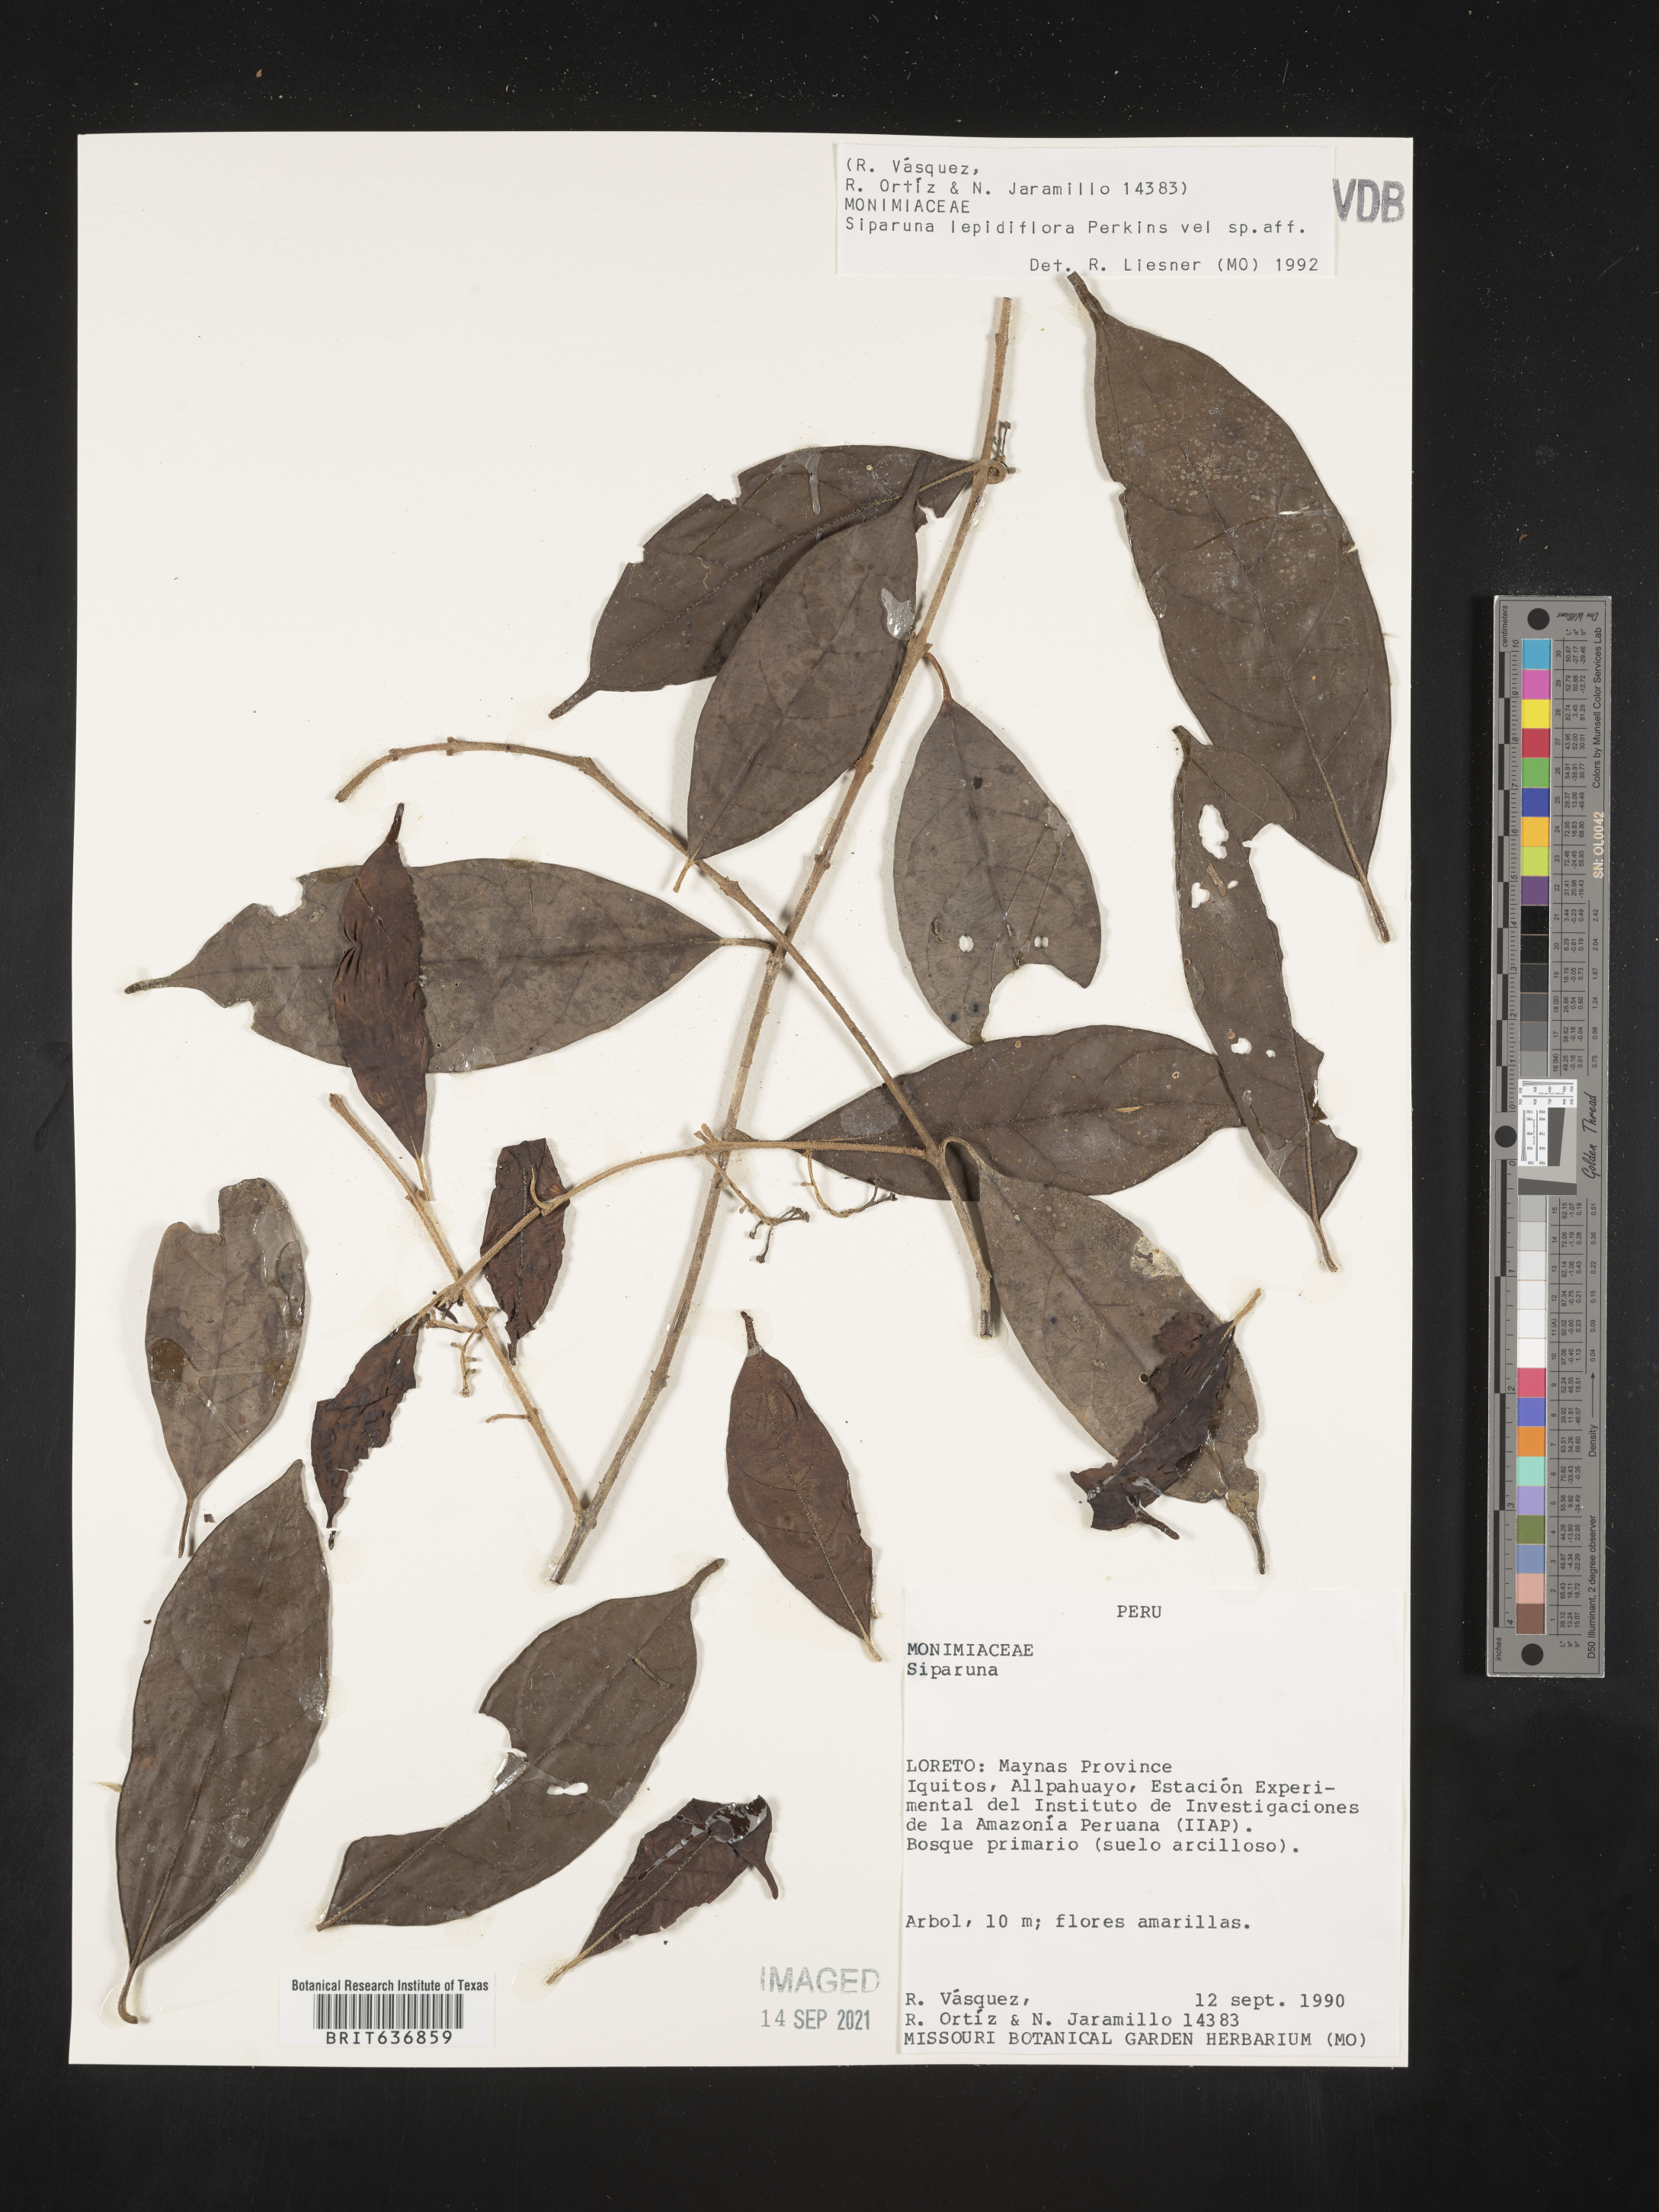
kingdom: Plantae
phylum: Tracheophyta
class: Magnoliopsida
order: Laurales
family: Siparunaceae
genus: Siparuna
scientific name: Siparuna
